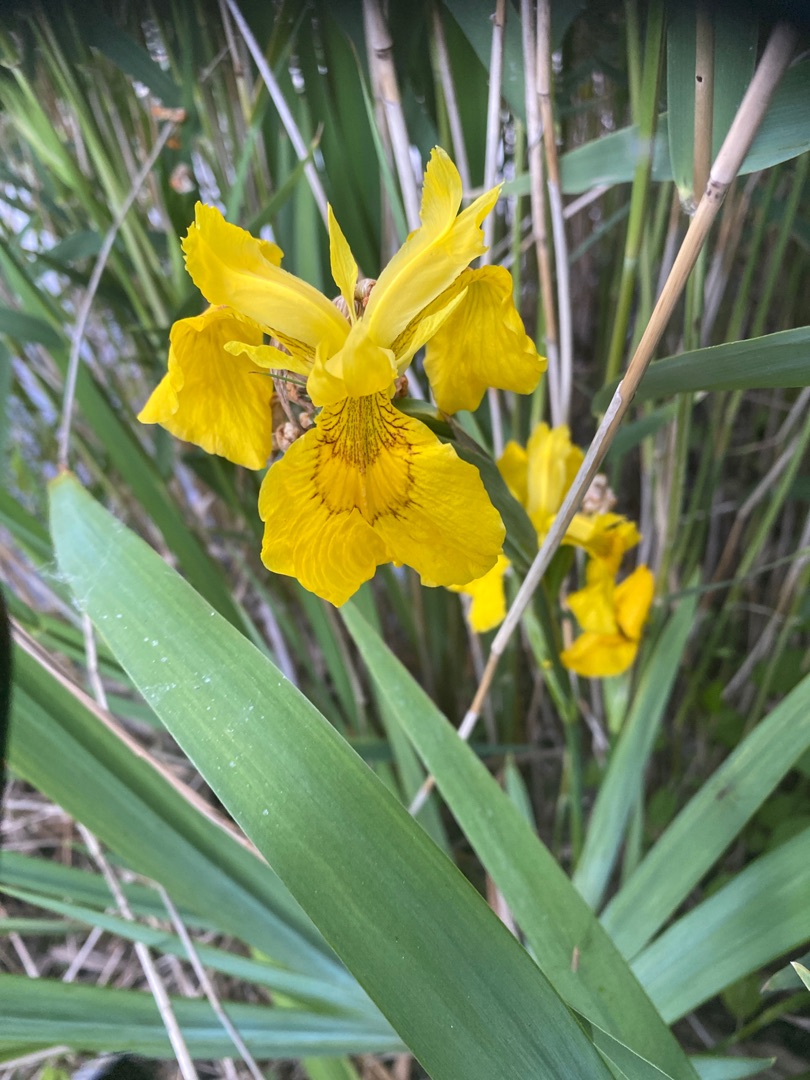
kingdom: Plantae
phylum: Tracheophyta
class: Liliopsida
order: Asparagales
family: Iridaceae
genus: Iris
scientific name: Iris pseudacorus
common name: Gul iris
